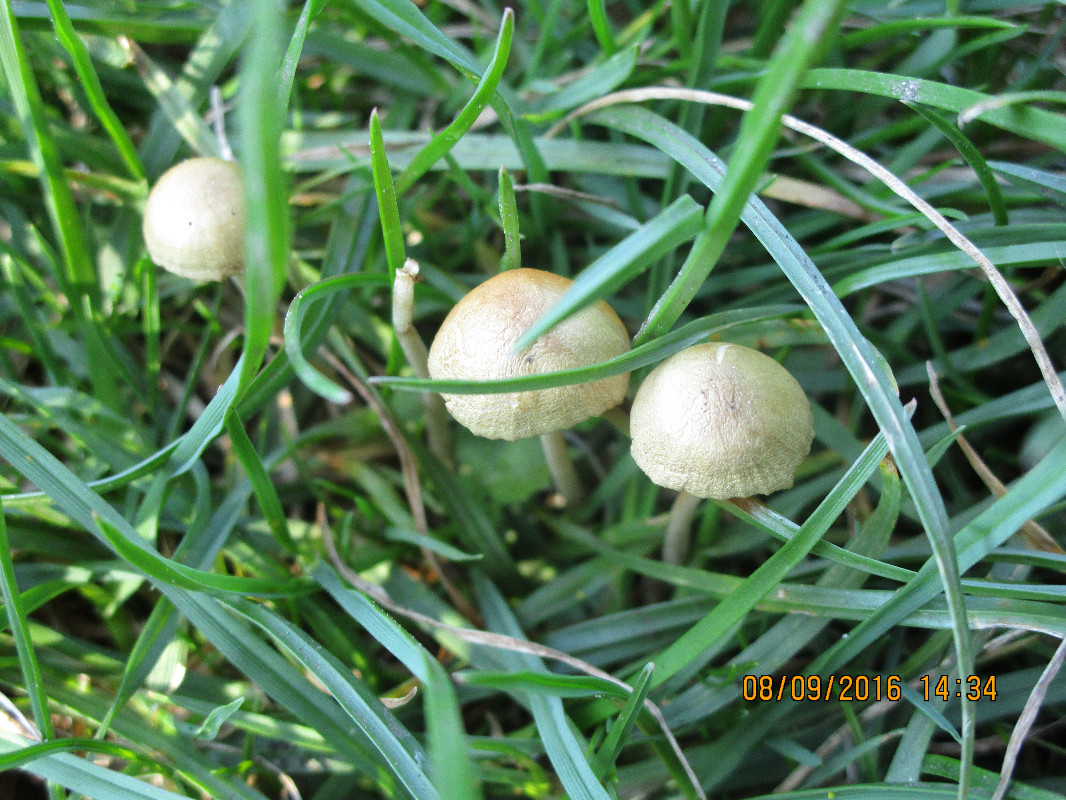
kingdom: Fungi
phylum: Basidiomycota
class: Agaricomycetes
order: Agaricales
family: Bolbitiaceae
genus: Conocybe
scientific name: Conocybe
